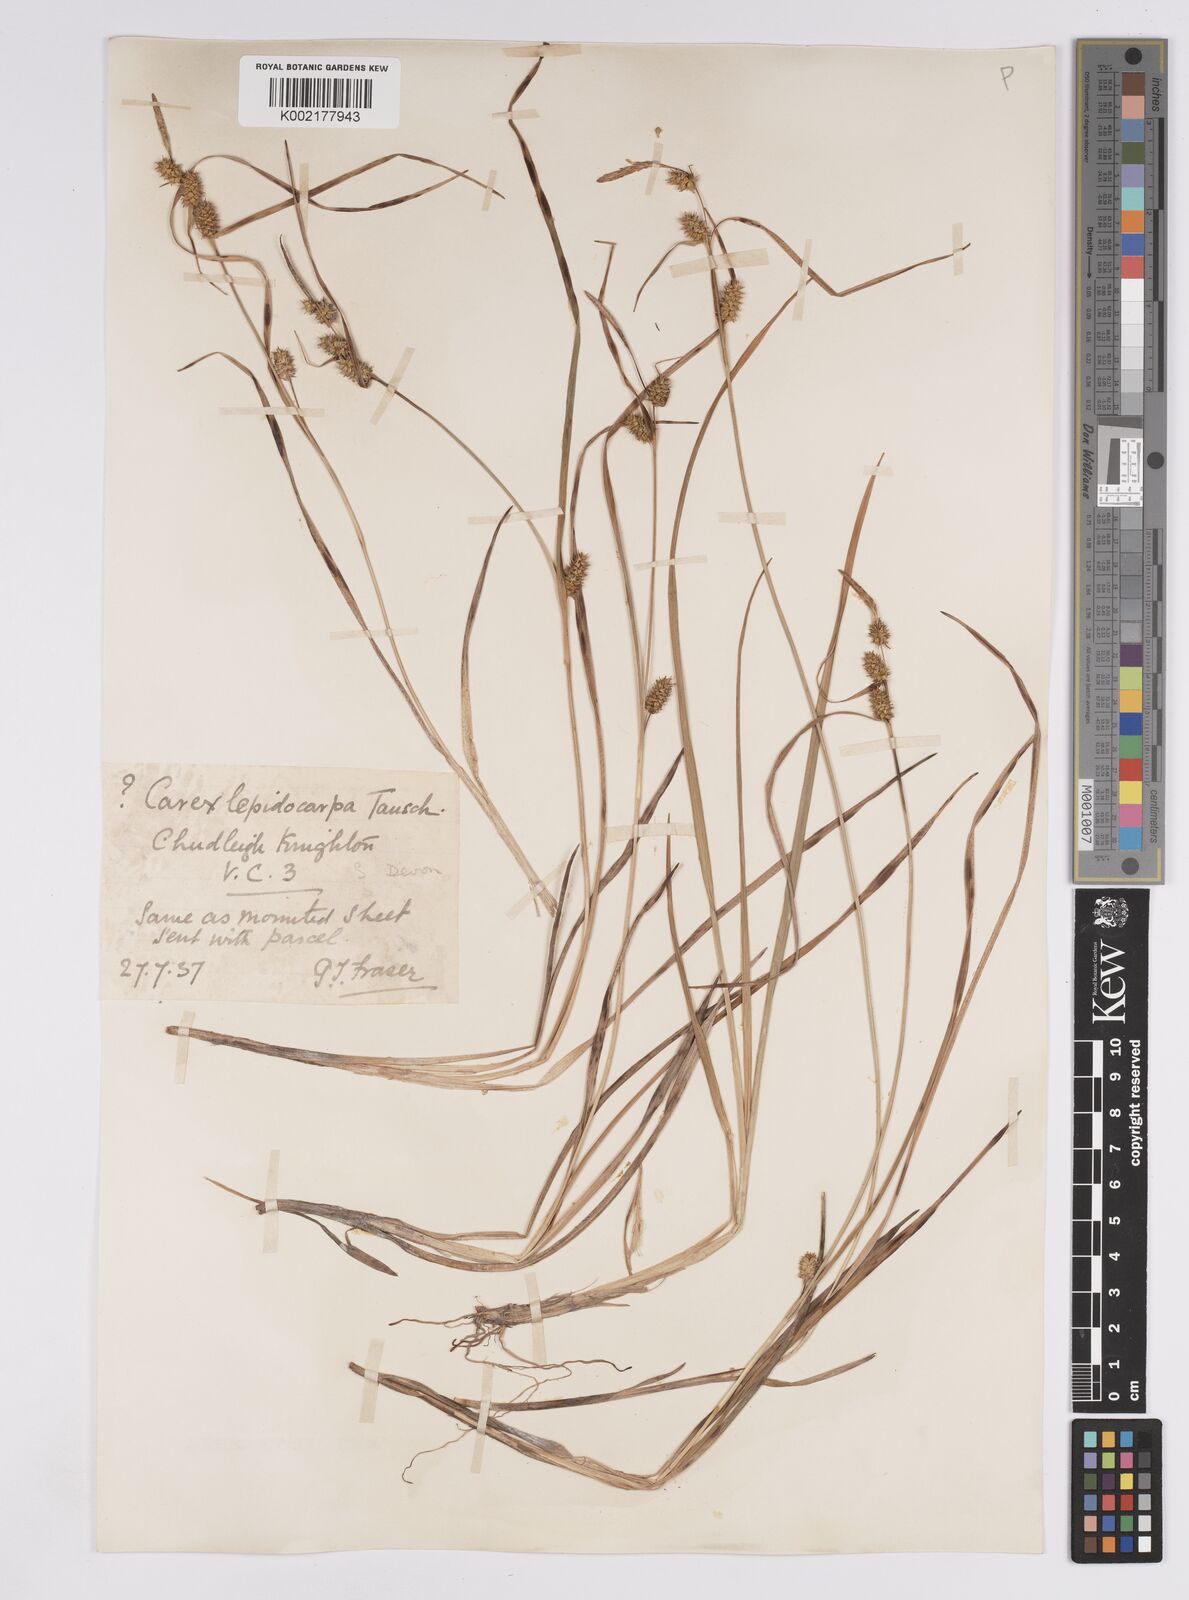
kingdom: Plantae
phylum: Tracheophyta
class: Liliopsida
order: Poales
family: Cyperaceae
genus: Carex
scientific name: Carex demissa
